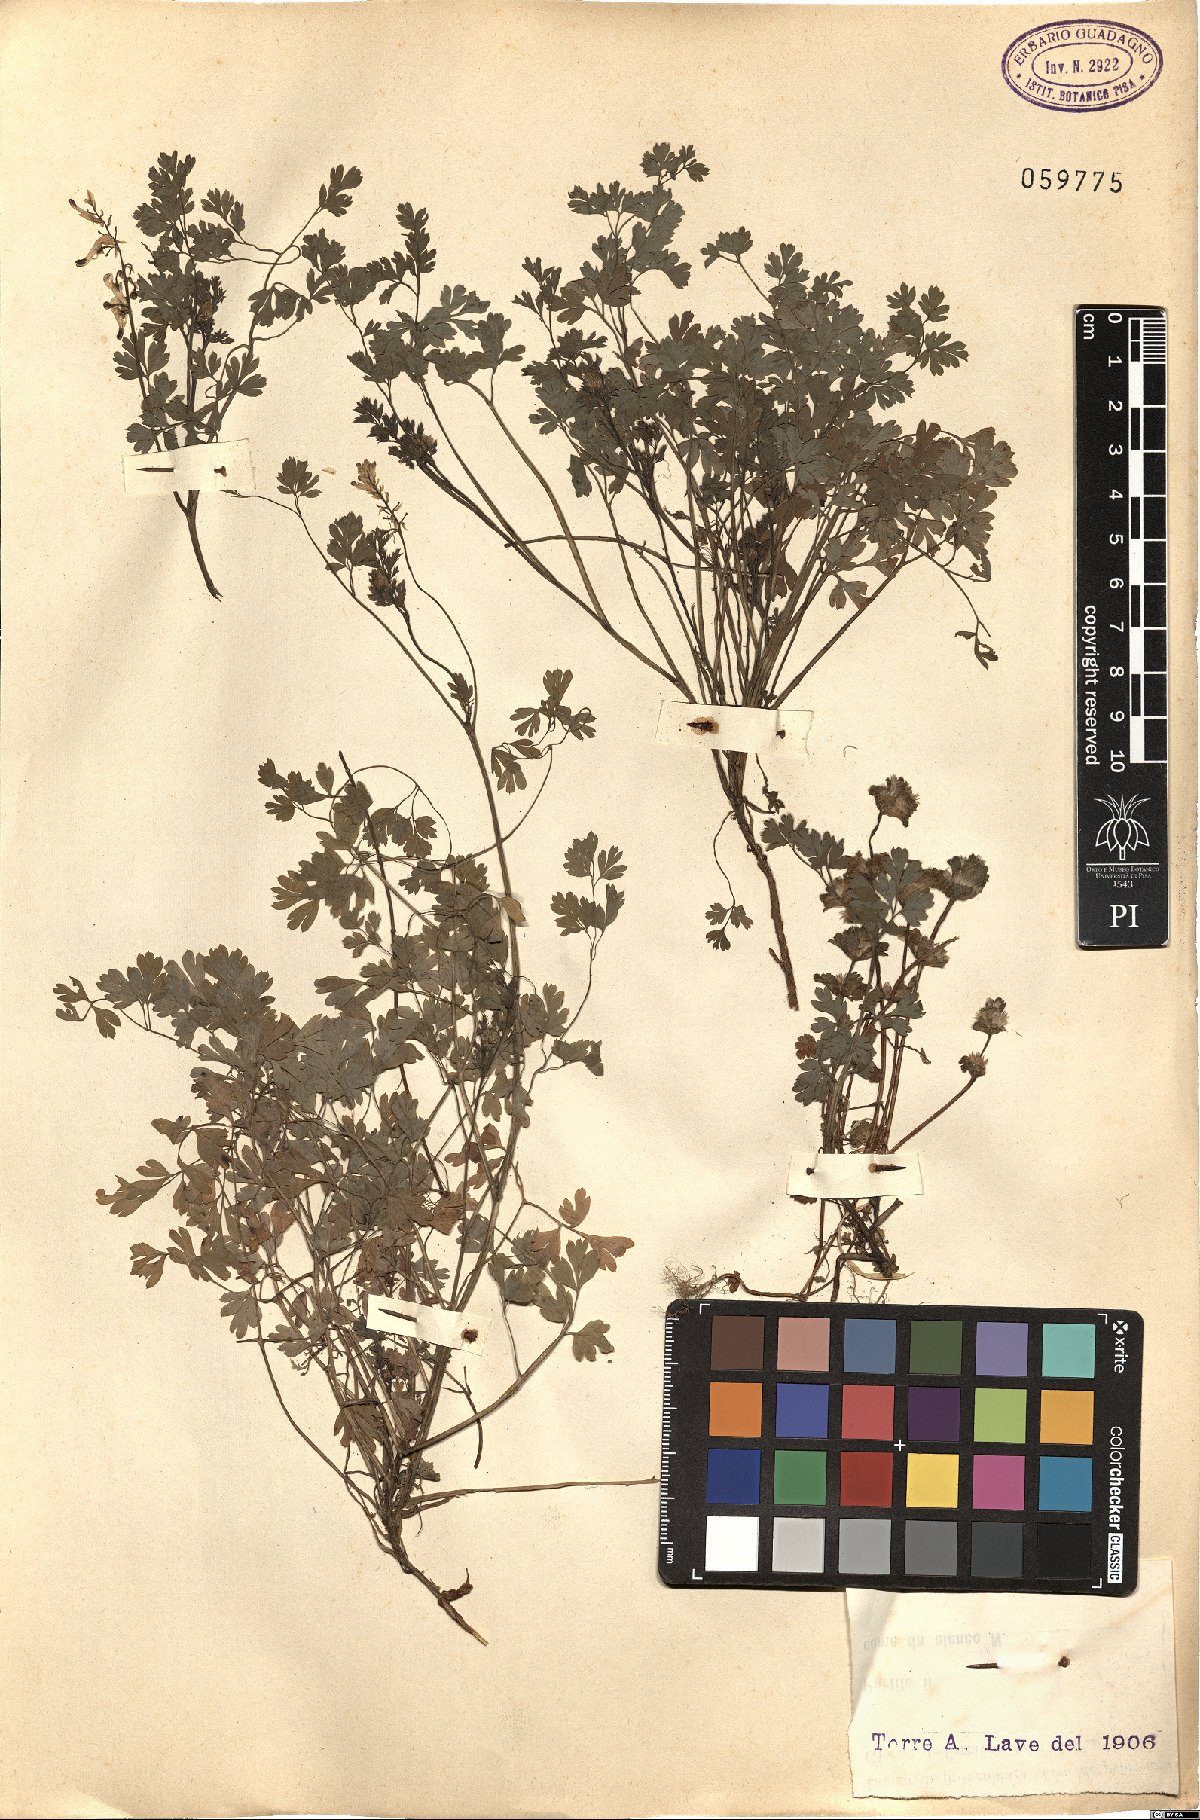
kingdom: Plantae
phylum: Tracheophyta
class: Magnoliopsida
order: Ranunculales
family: Papaveraceae
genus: Fumaria
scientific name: Fumaria
